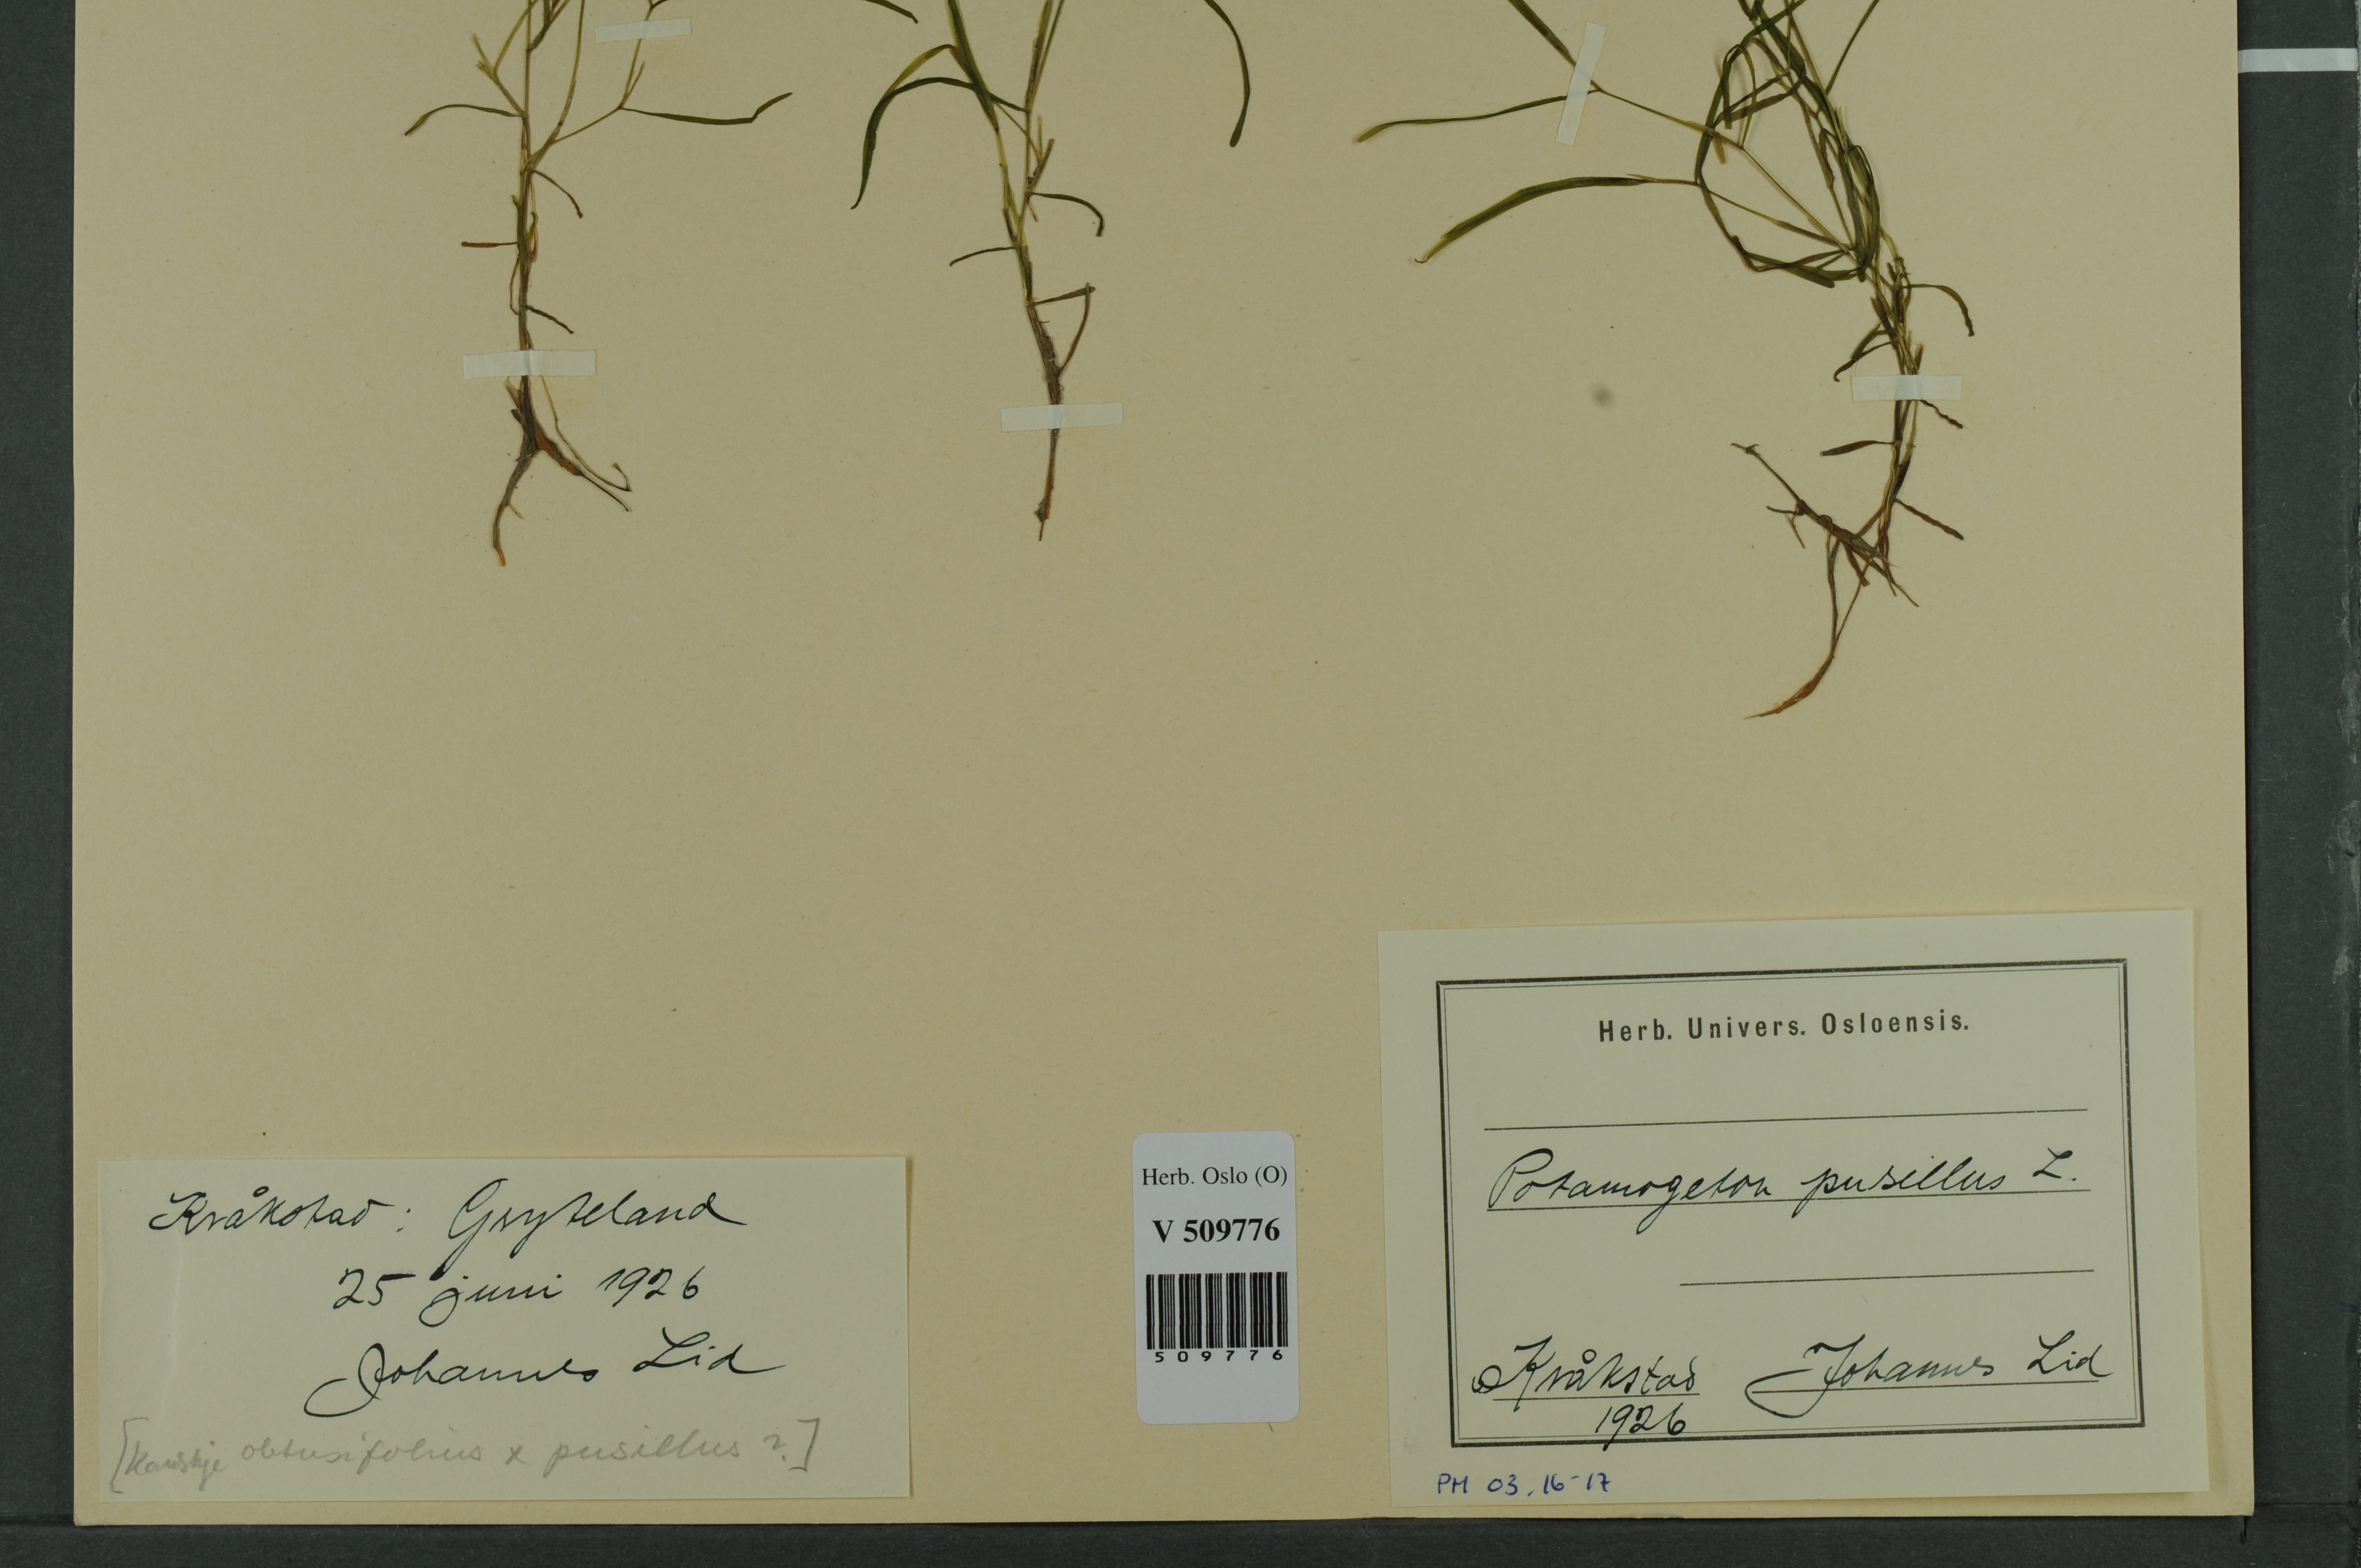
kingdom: Plantae
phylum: Tracheophyta
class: Liliopsida
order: Alismatales
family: Potamogetonaceae
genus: Potamogeton
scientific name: Potamogeton berchtoldii
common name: Small pondweed
